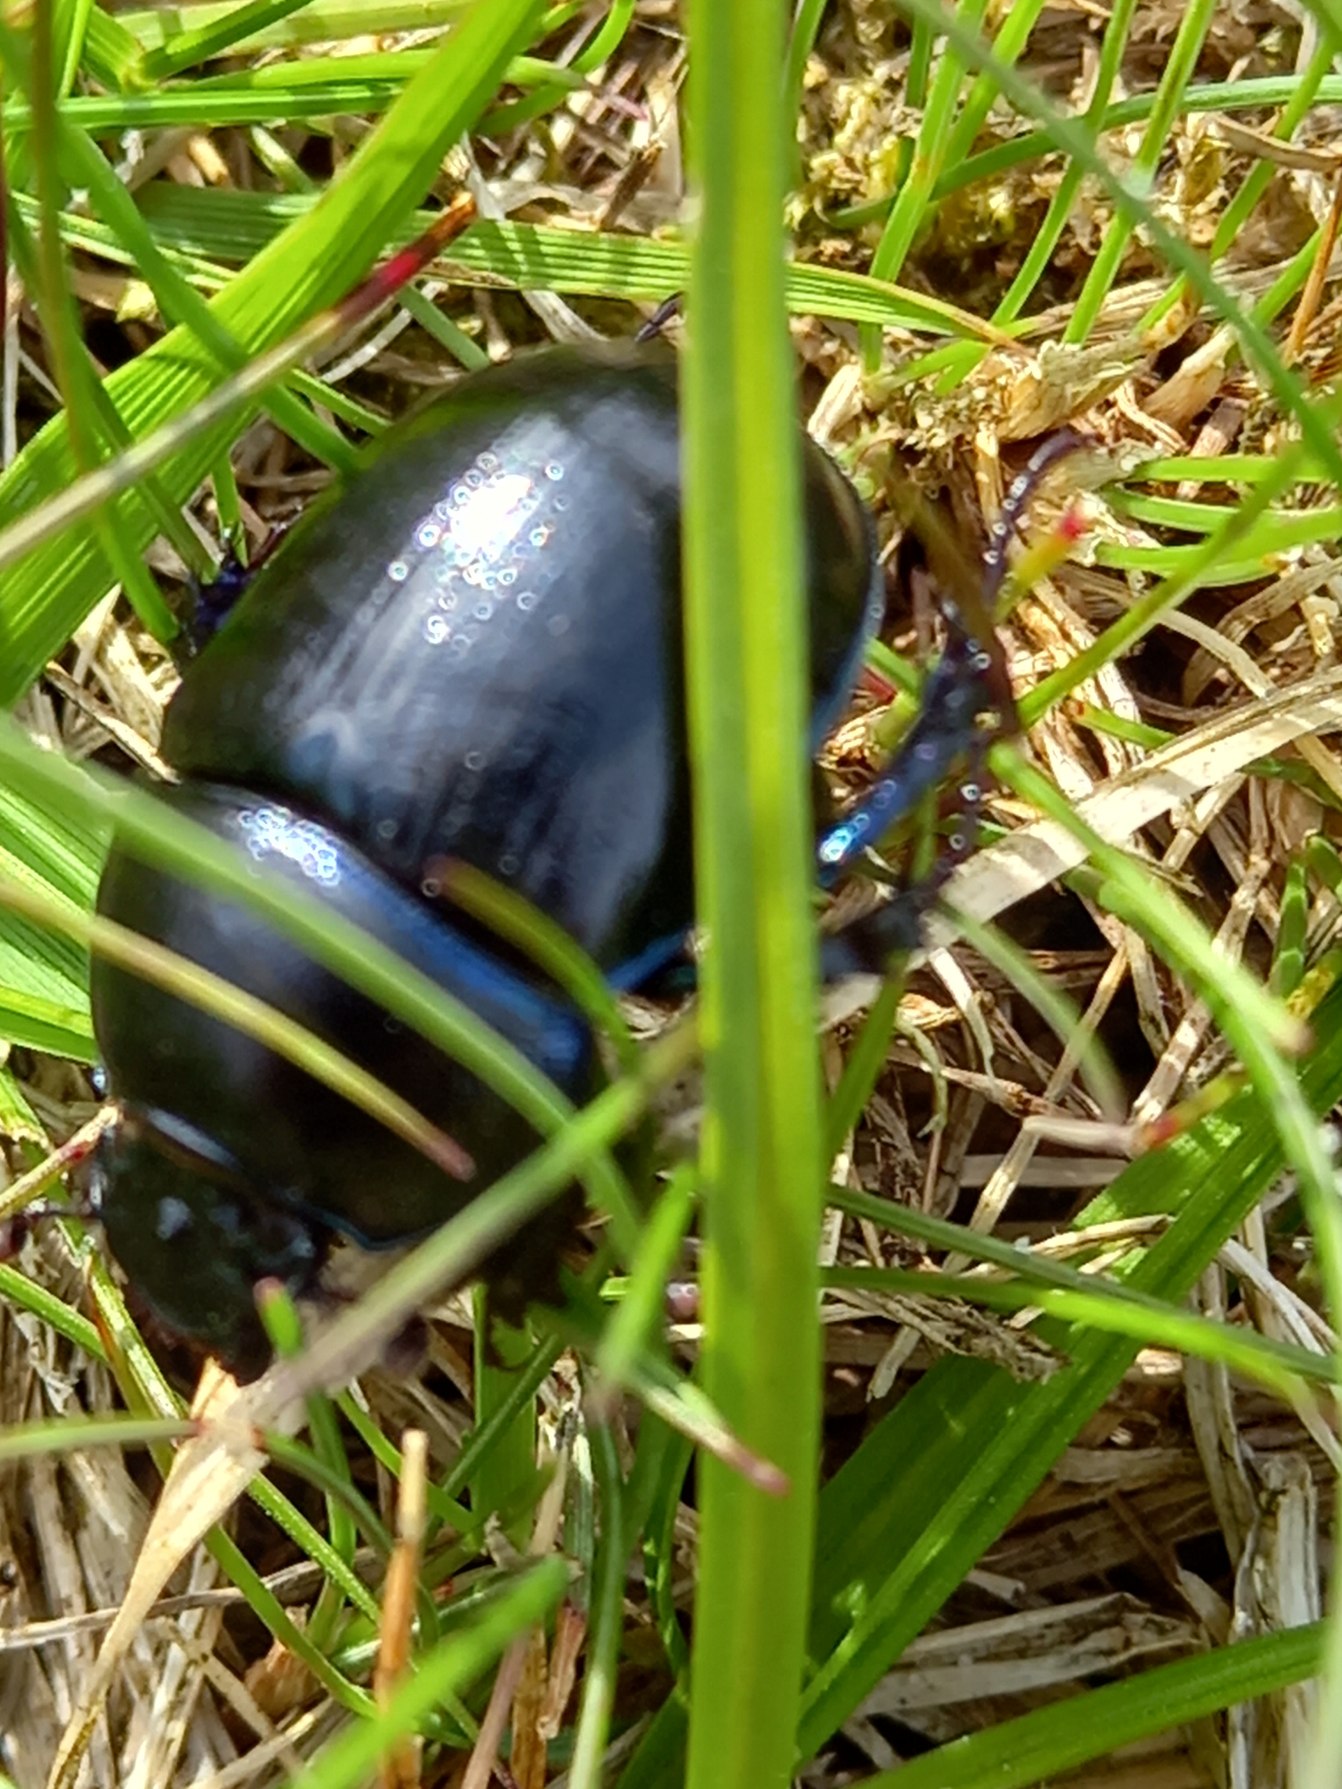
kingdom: Animalia
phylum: Arthropoda
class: Insecta
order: Coleoptera
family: Geotrupidae
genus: Anoplotrupes
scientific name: Anoplotrupes stercorosus
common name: Skovskarnbasse
